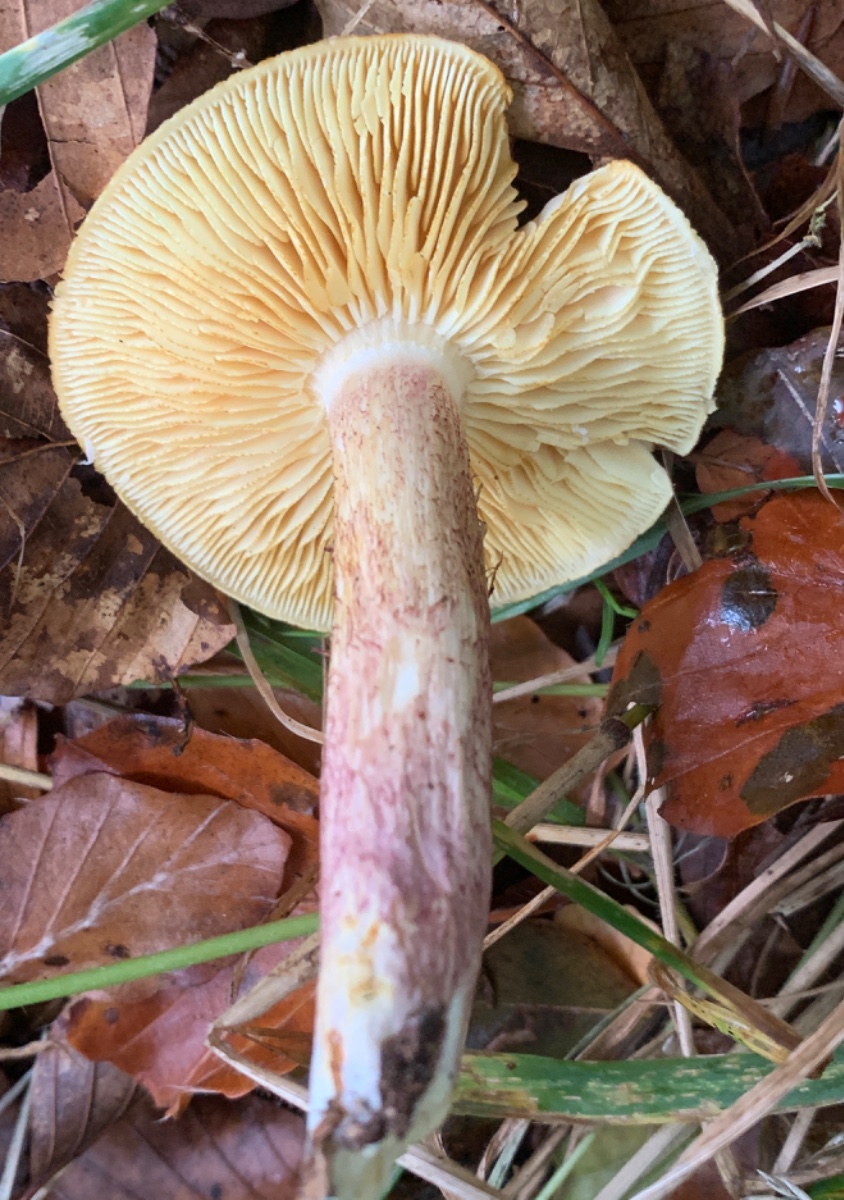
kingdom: Fungi
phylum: Basidiomycota
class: Agaricomycetes
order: Agaricales
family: Tricholomataceae
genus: Tricholomopsis
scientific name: Tricholomopsis rutilans
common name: purpur-væbnerhat
